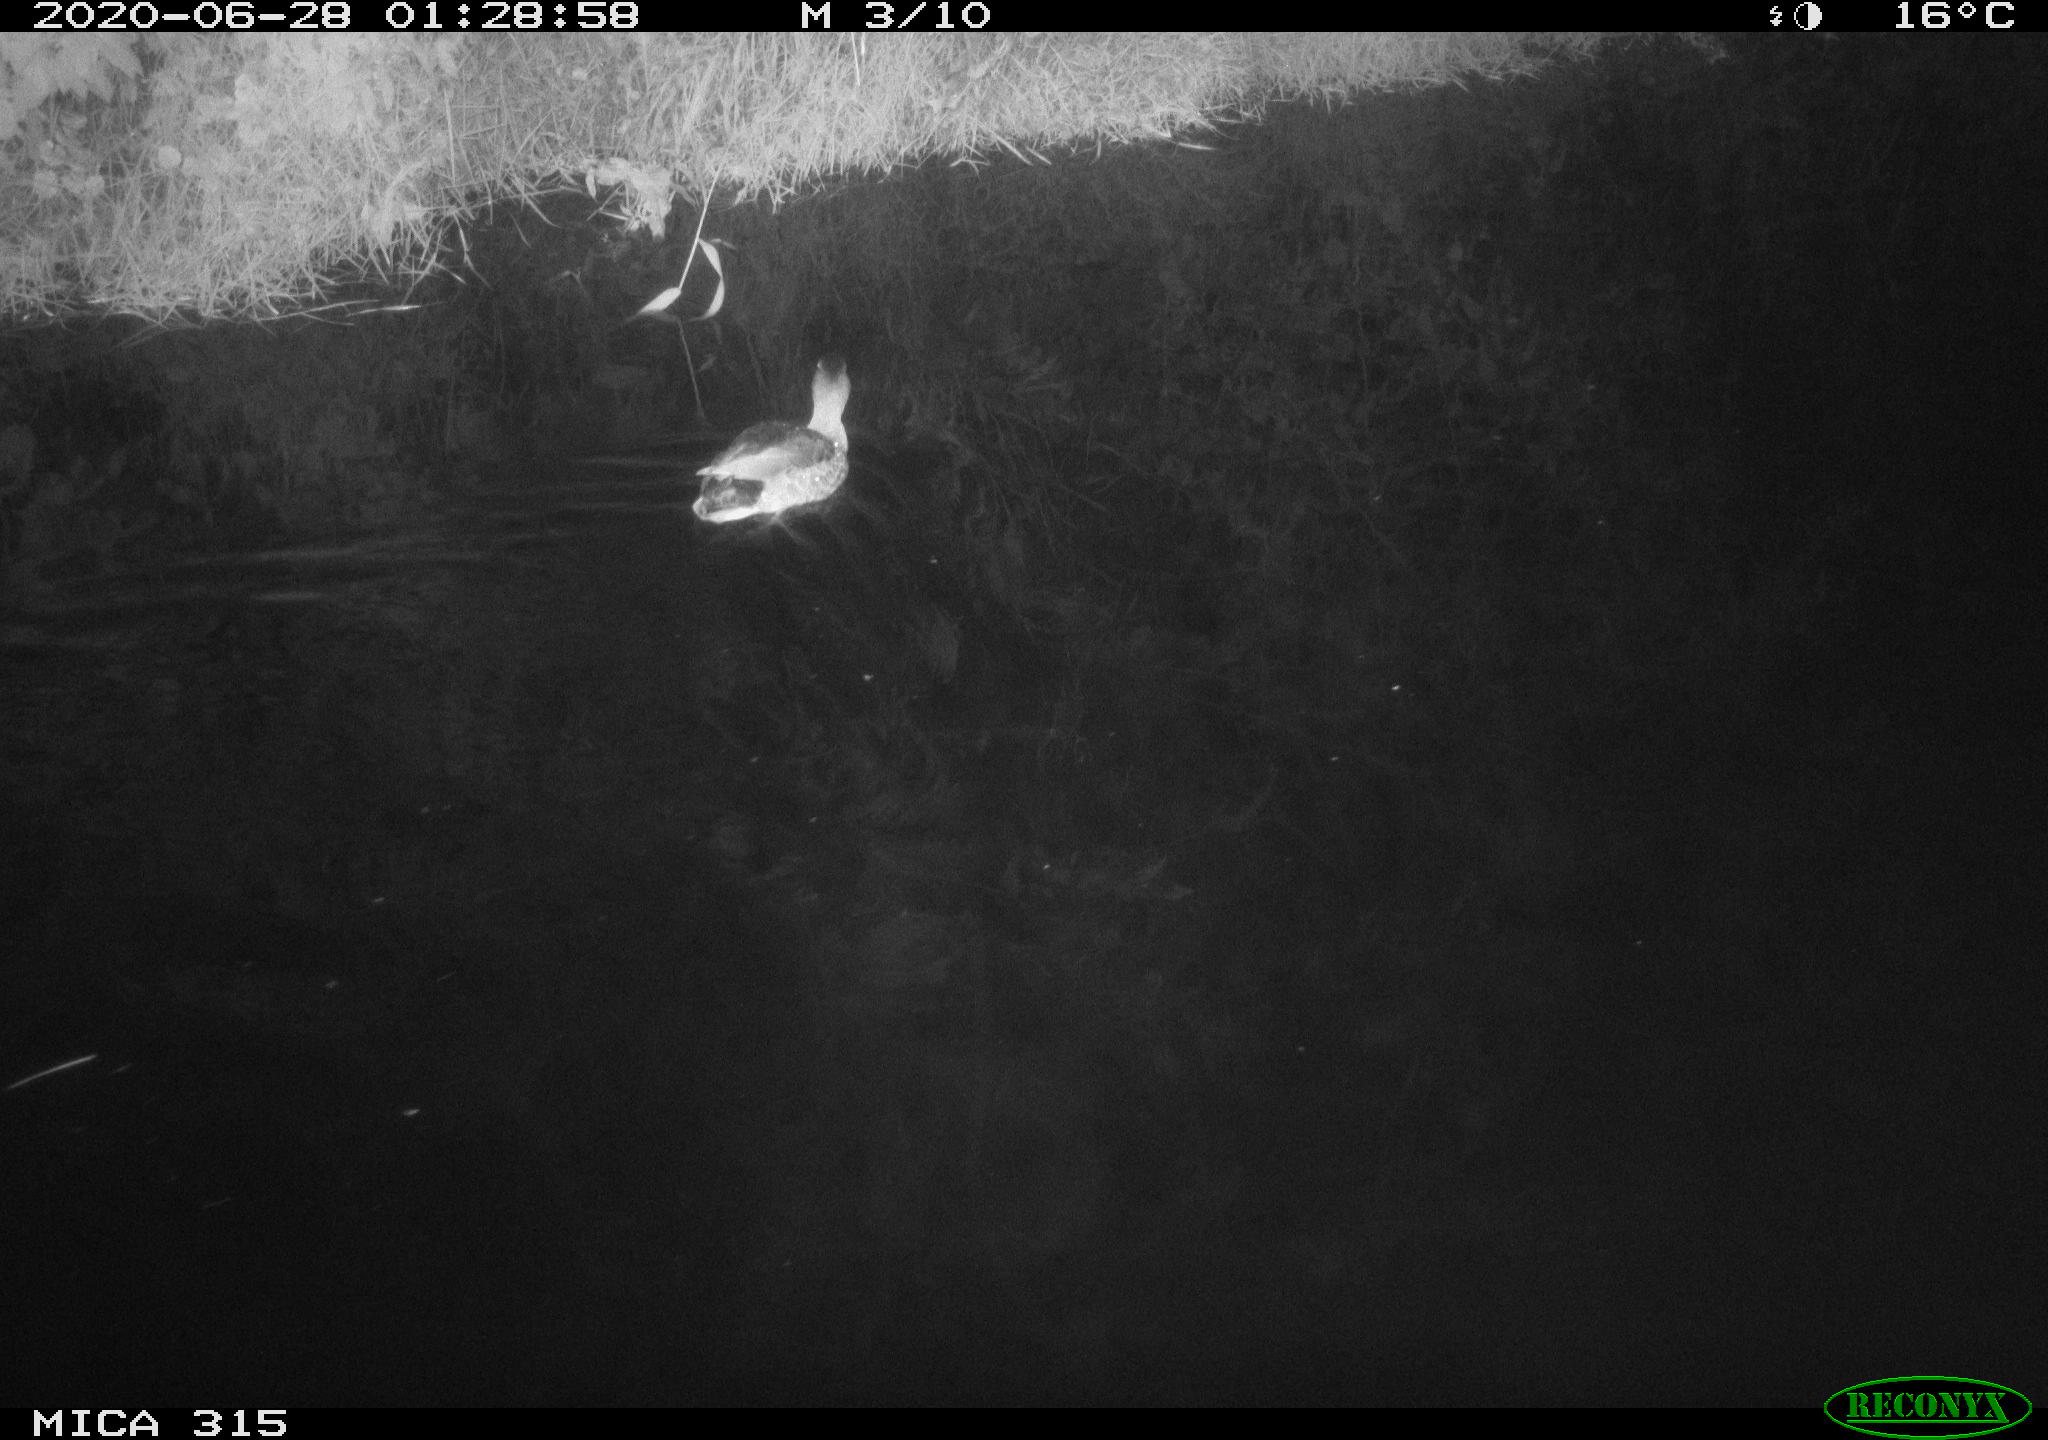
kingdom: Animalia
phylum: Chordata
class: Aves
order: Anseriformes
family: Anatidae
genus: Anas
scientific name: Anas platyrhynchos
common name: Mallard
